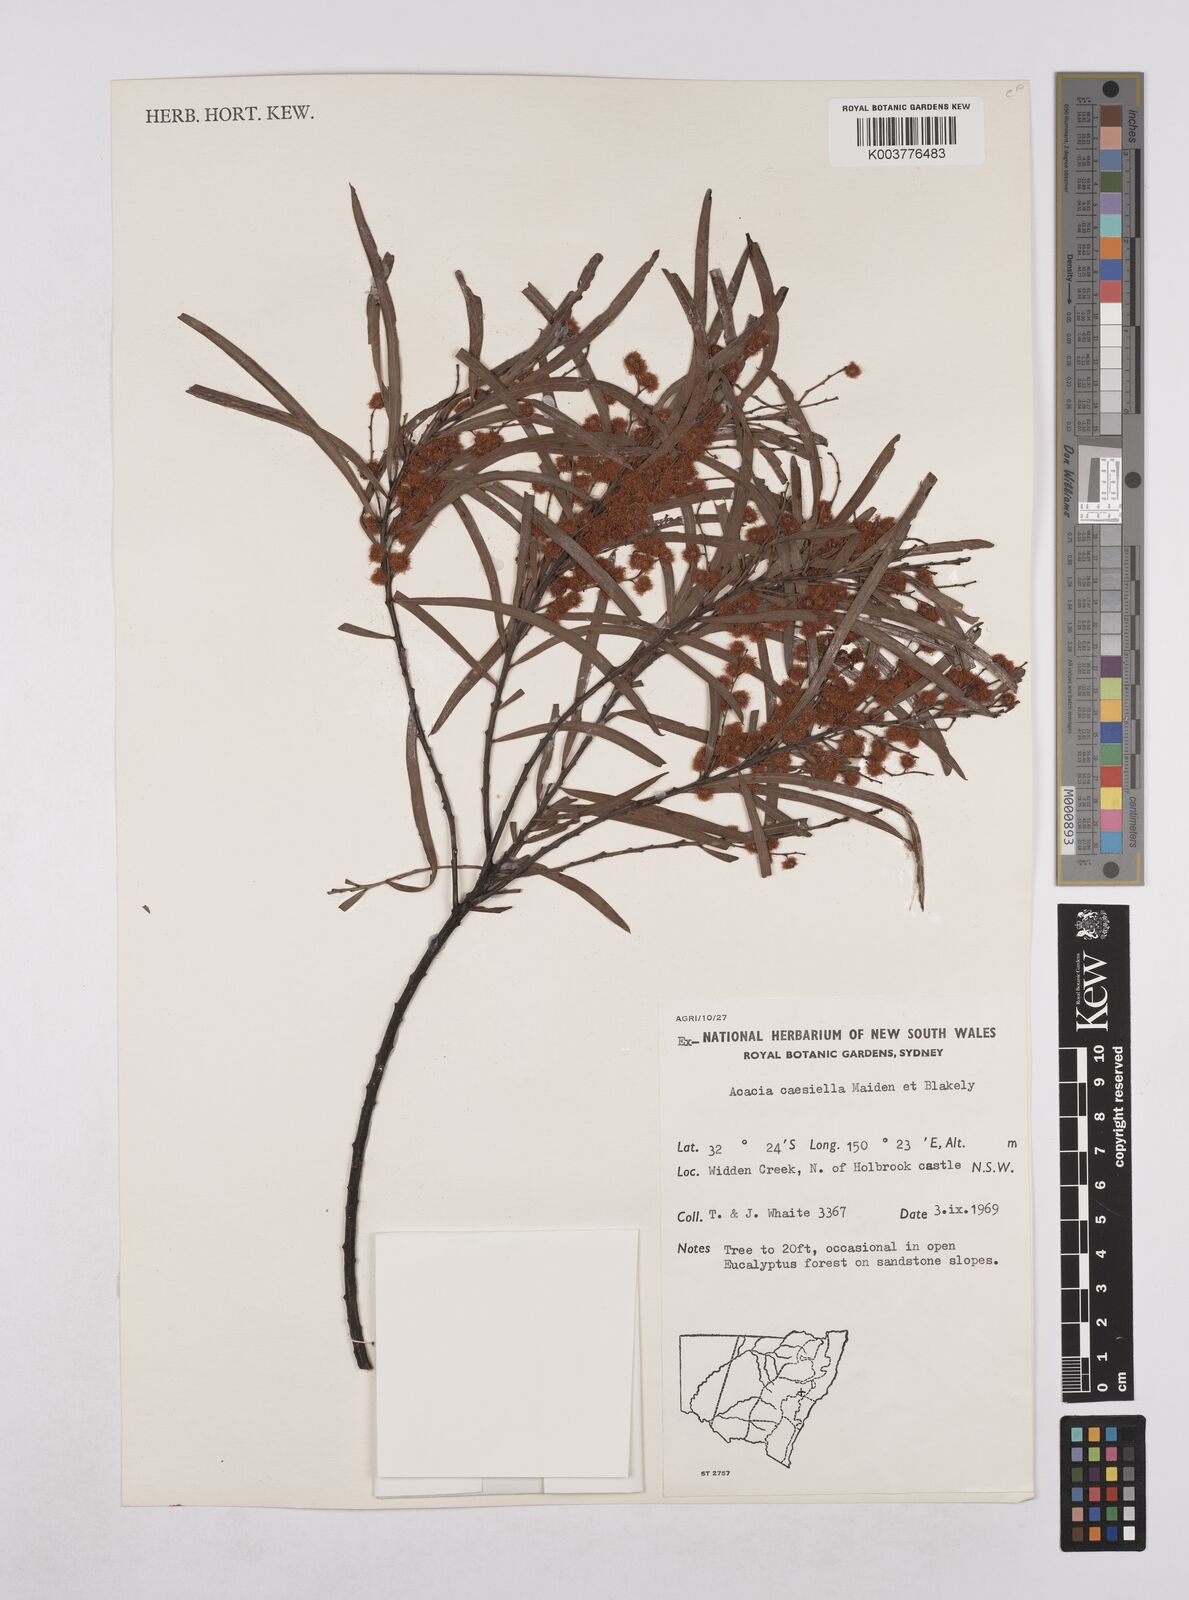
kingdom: Plantae
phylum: Tracheophyta
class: Magnoliopsida
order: Fabales
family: Fabaceae
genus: Acacia
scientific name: Acacia caesiella
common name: Tableland wattle
